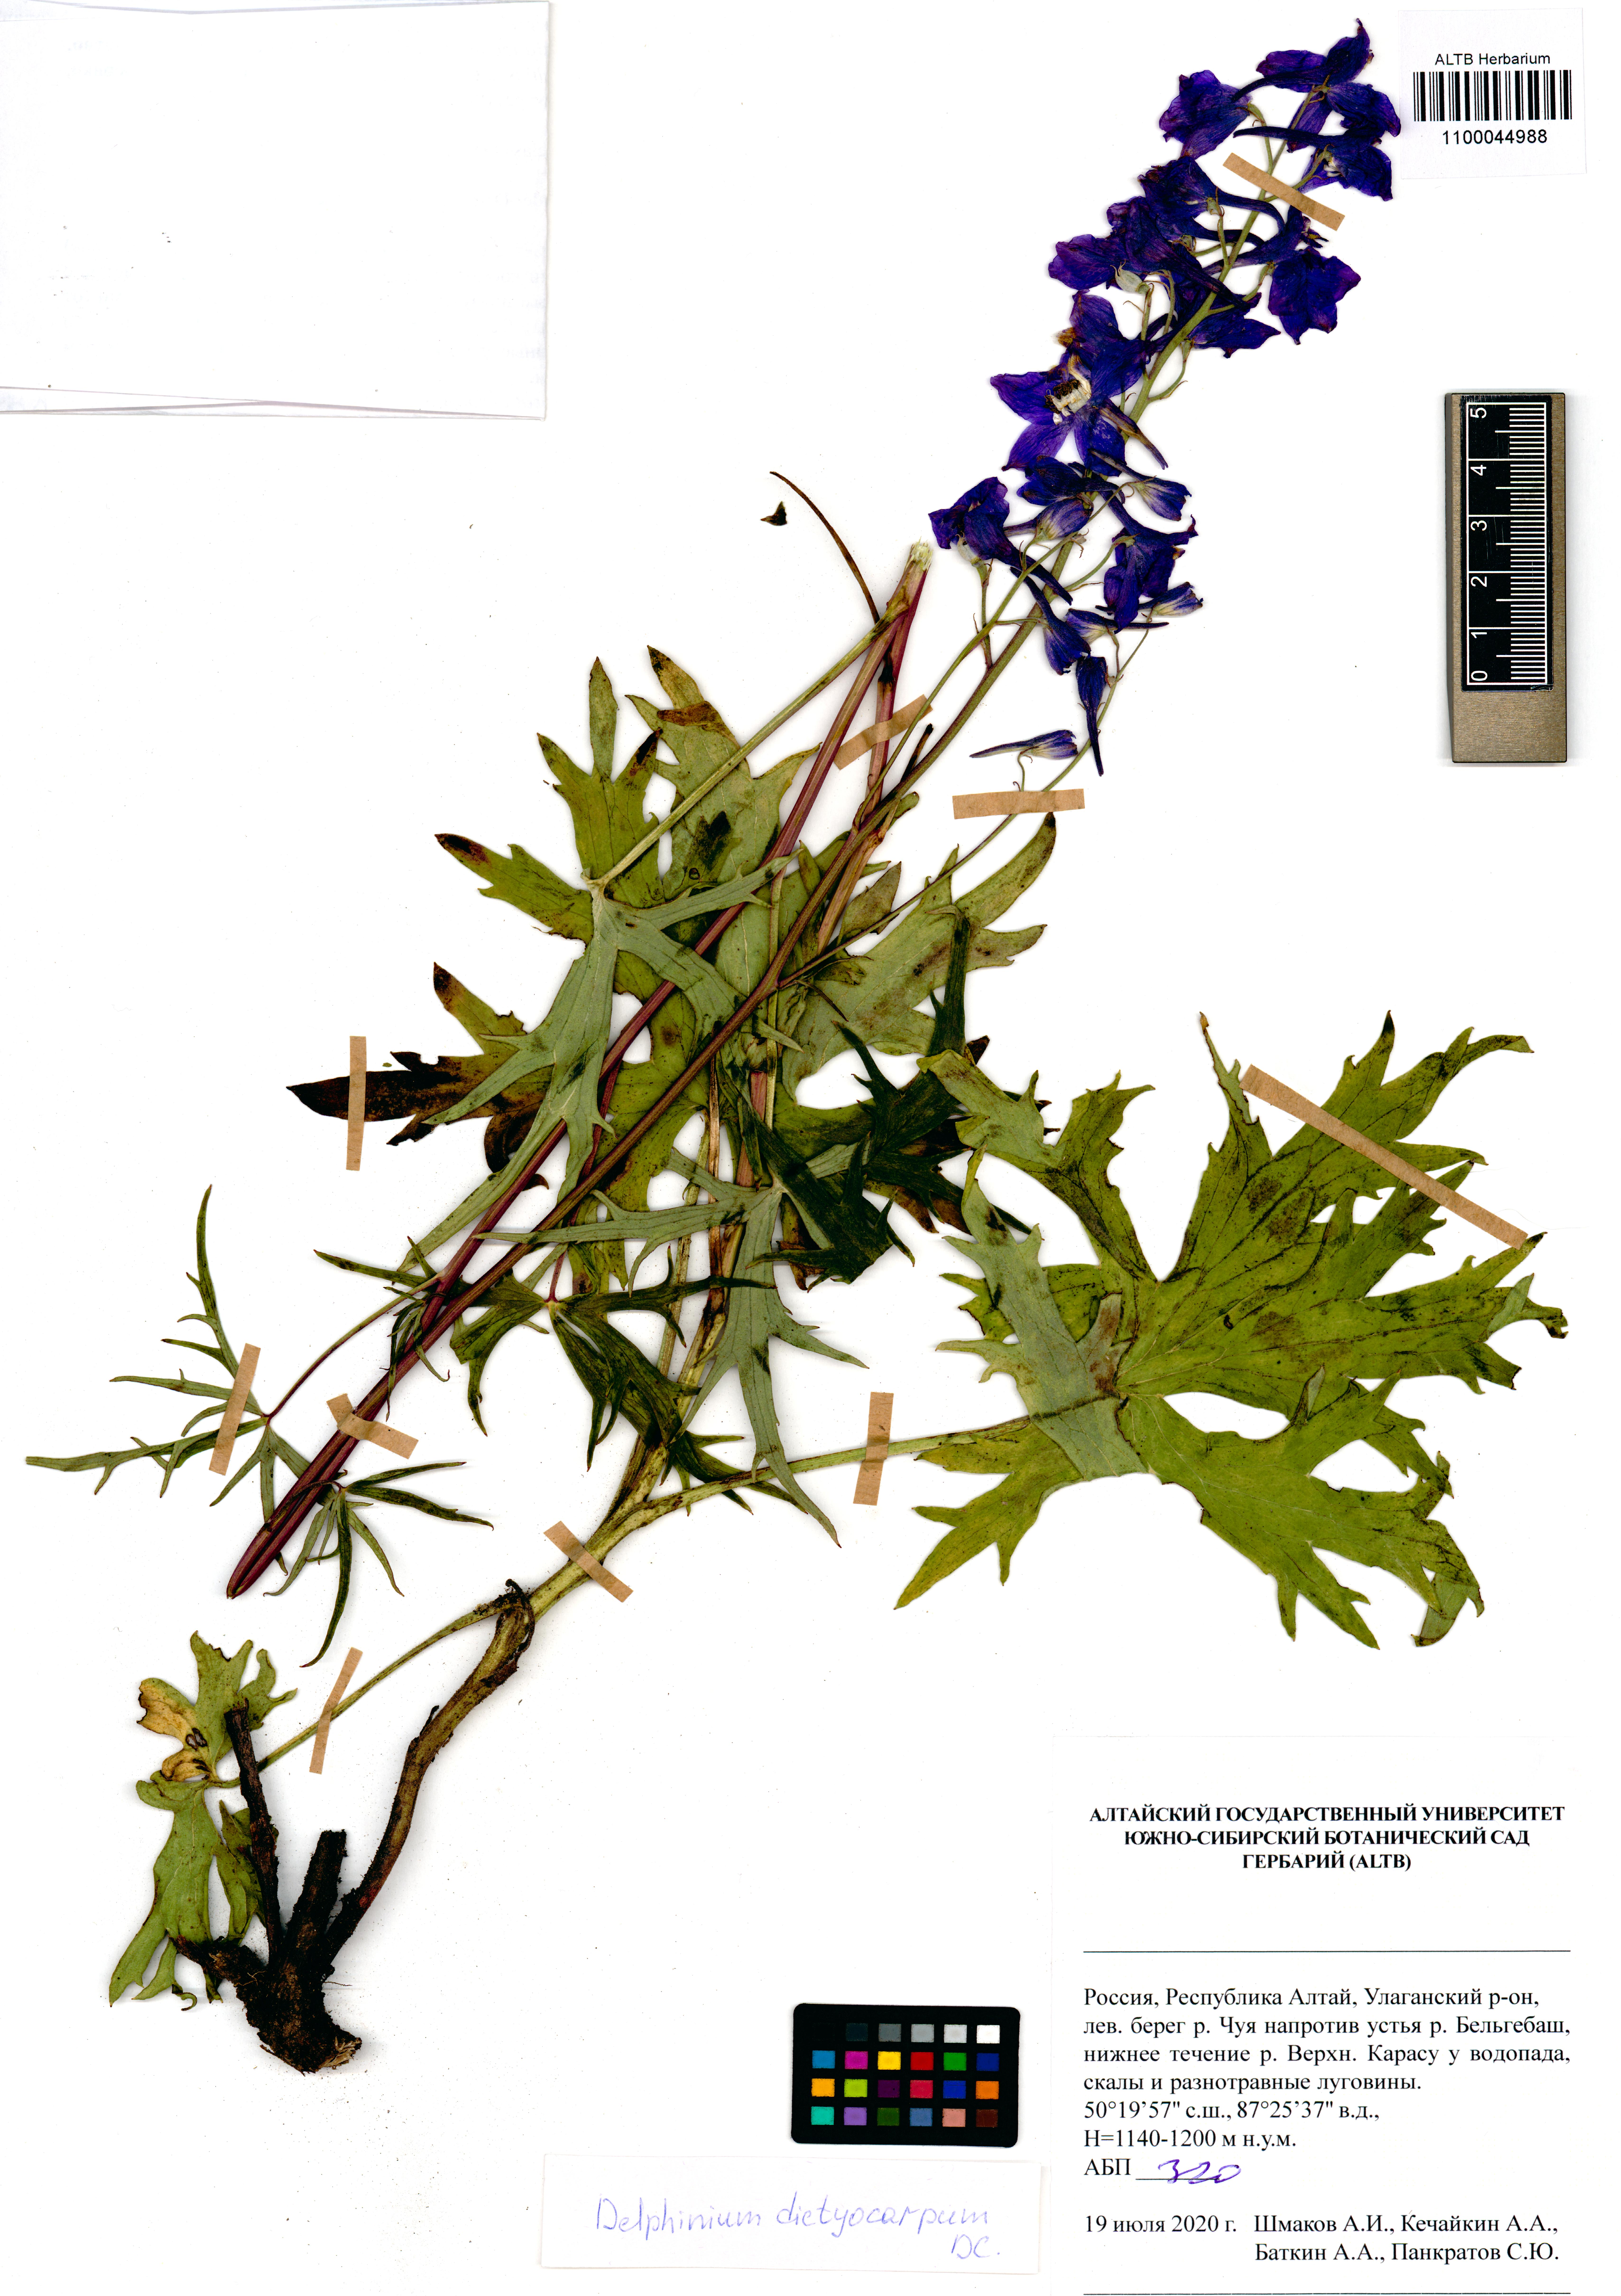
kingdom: Plantae
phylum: Tracheophyta
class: Magnoliopsida
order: Ranunculales
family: Ranunculaceae
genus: Delphinium
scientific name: Delphinium dictyocarpum
